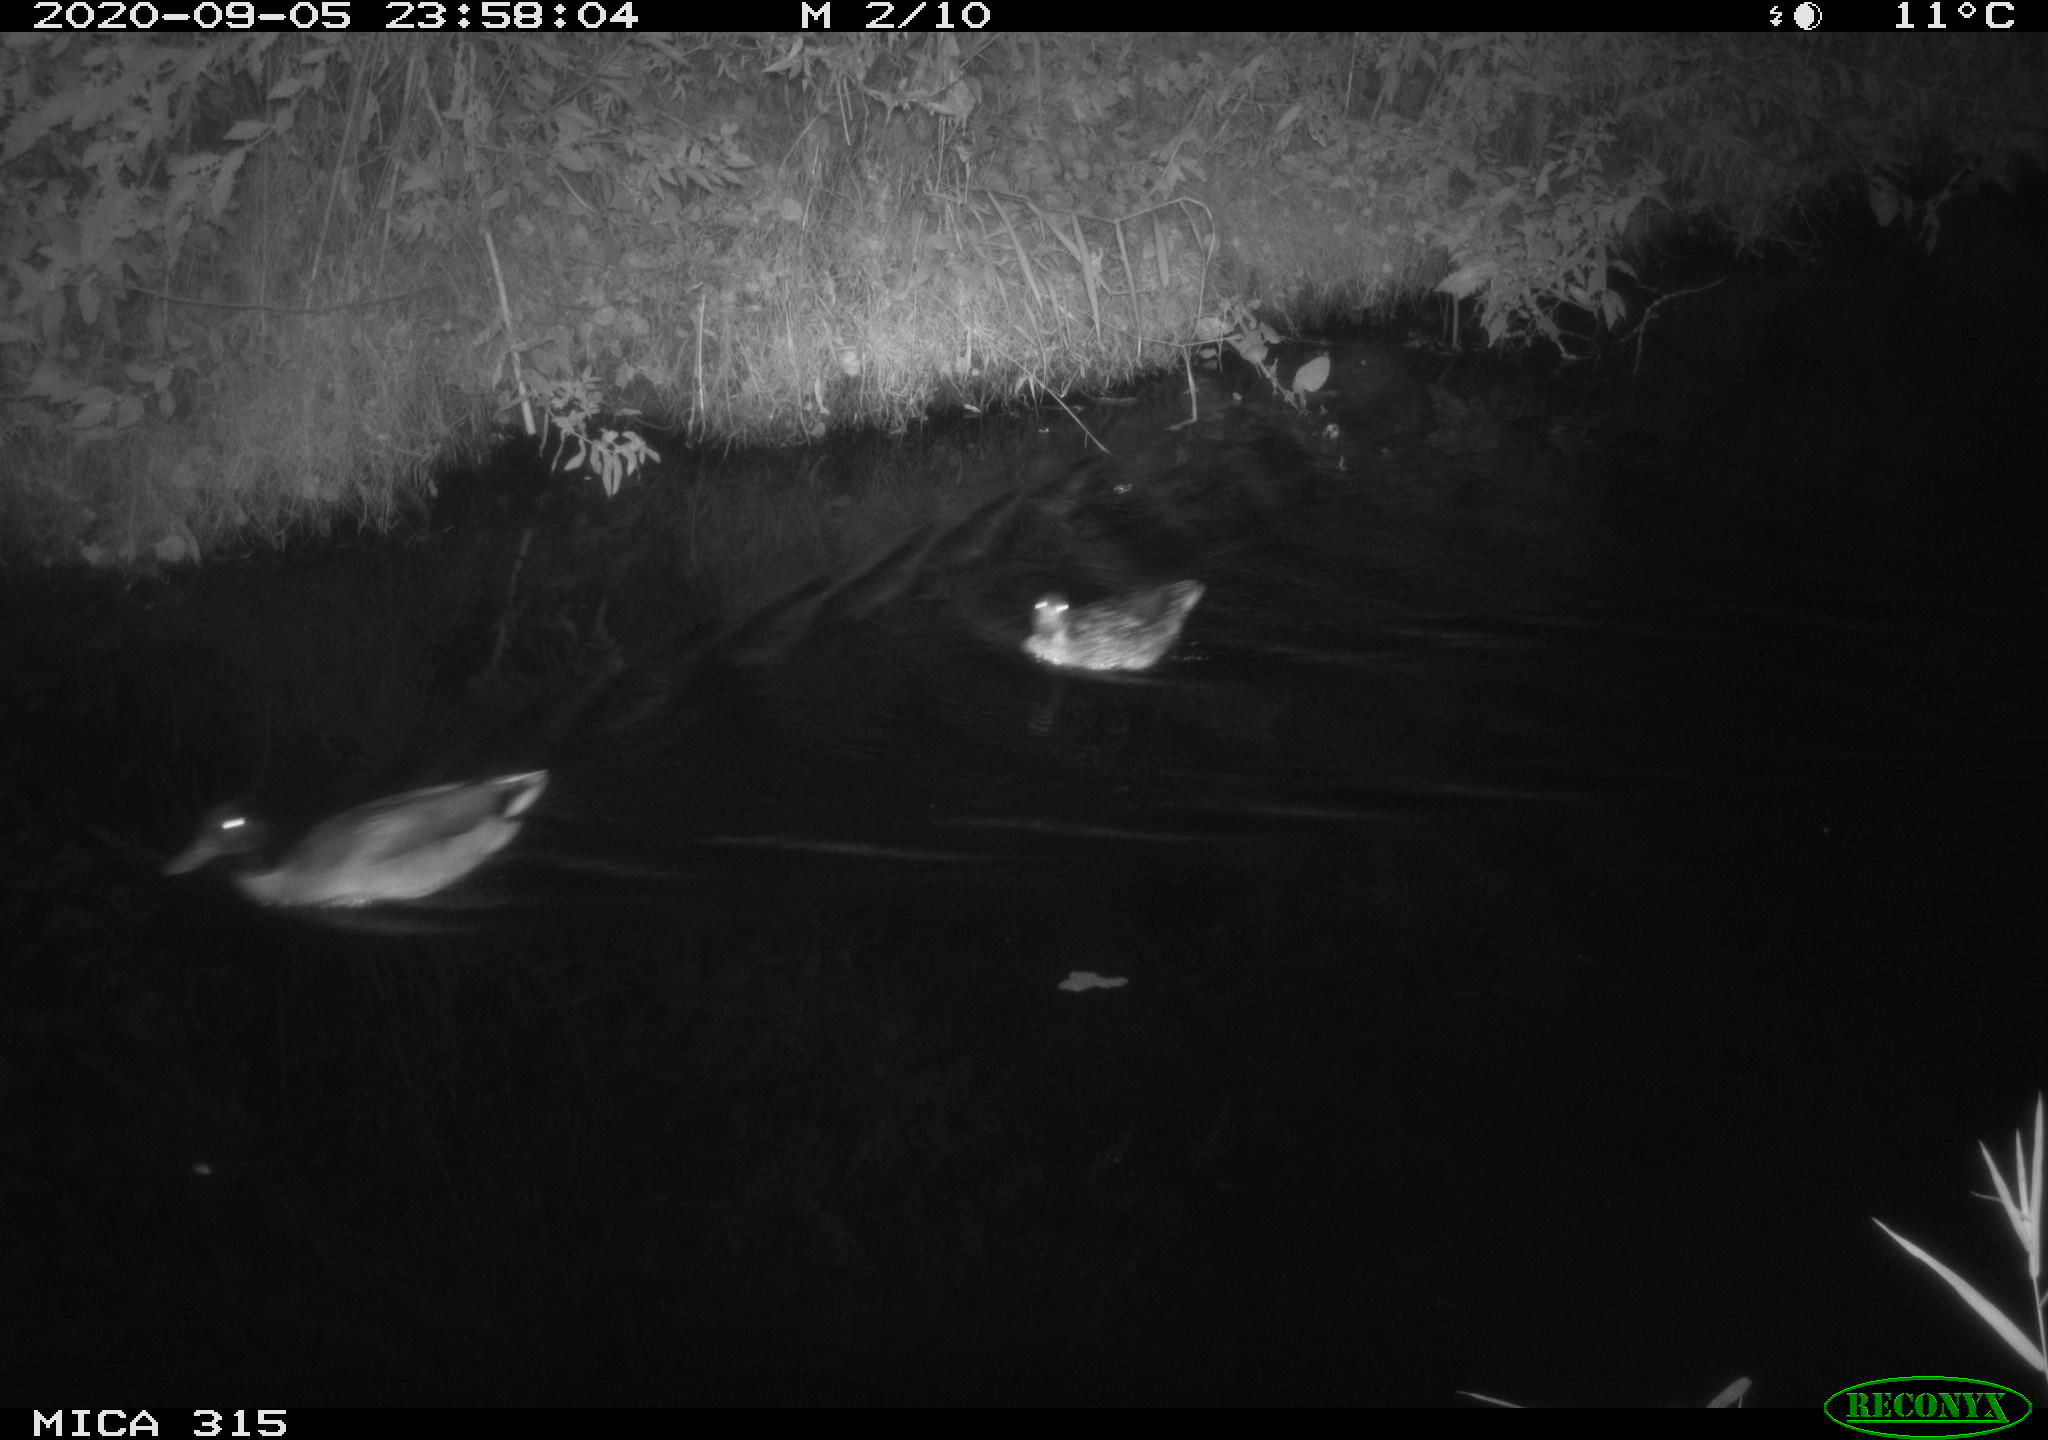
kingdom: Animalia
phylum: Chordata
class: Aves
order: Anseriformes
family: Anatidae
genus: Anas
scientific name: Anas platyrhynchos
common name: Mallard
